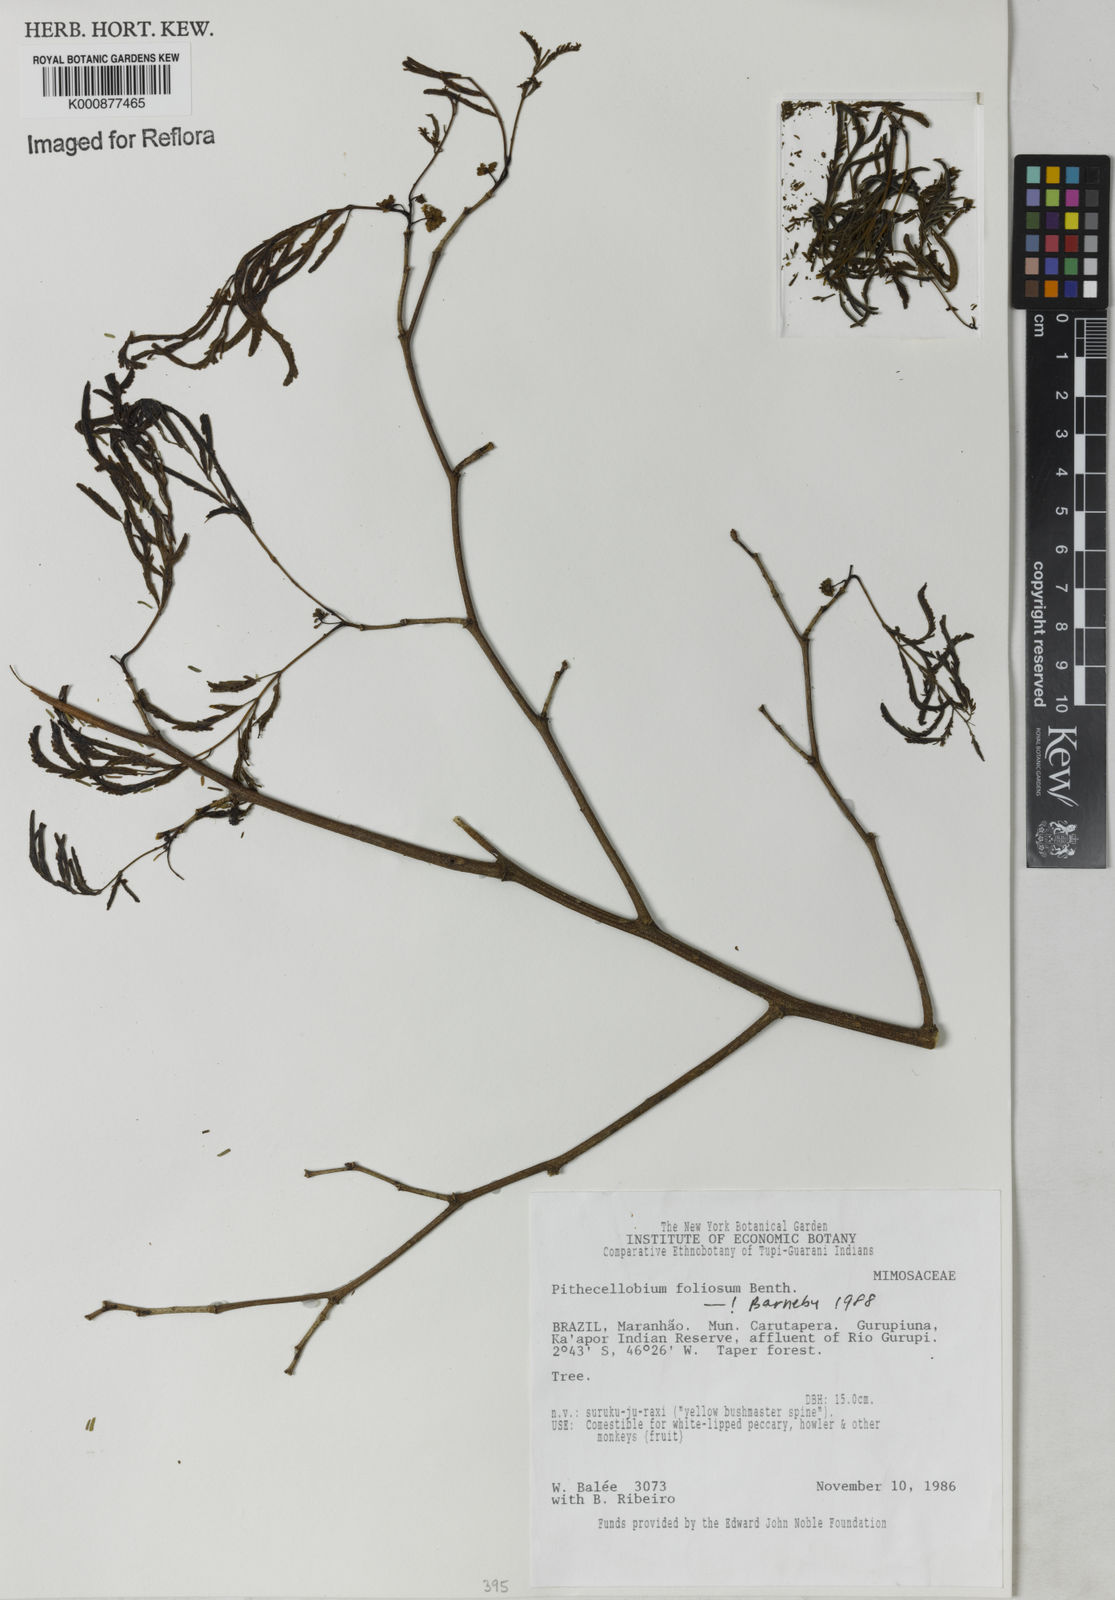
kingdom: Plantae
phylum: Tracheophyta
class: Magnoliopsida
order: Fabales
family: Fabaceae
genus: Chloroleucon
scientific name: Chloroleucon
